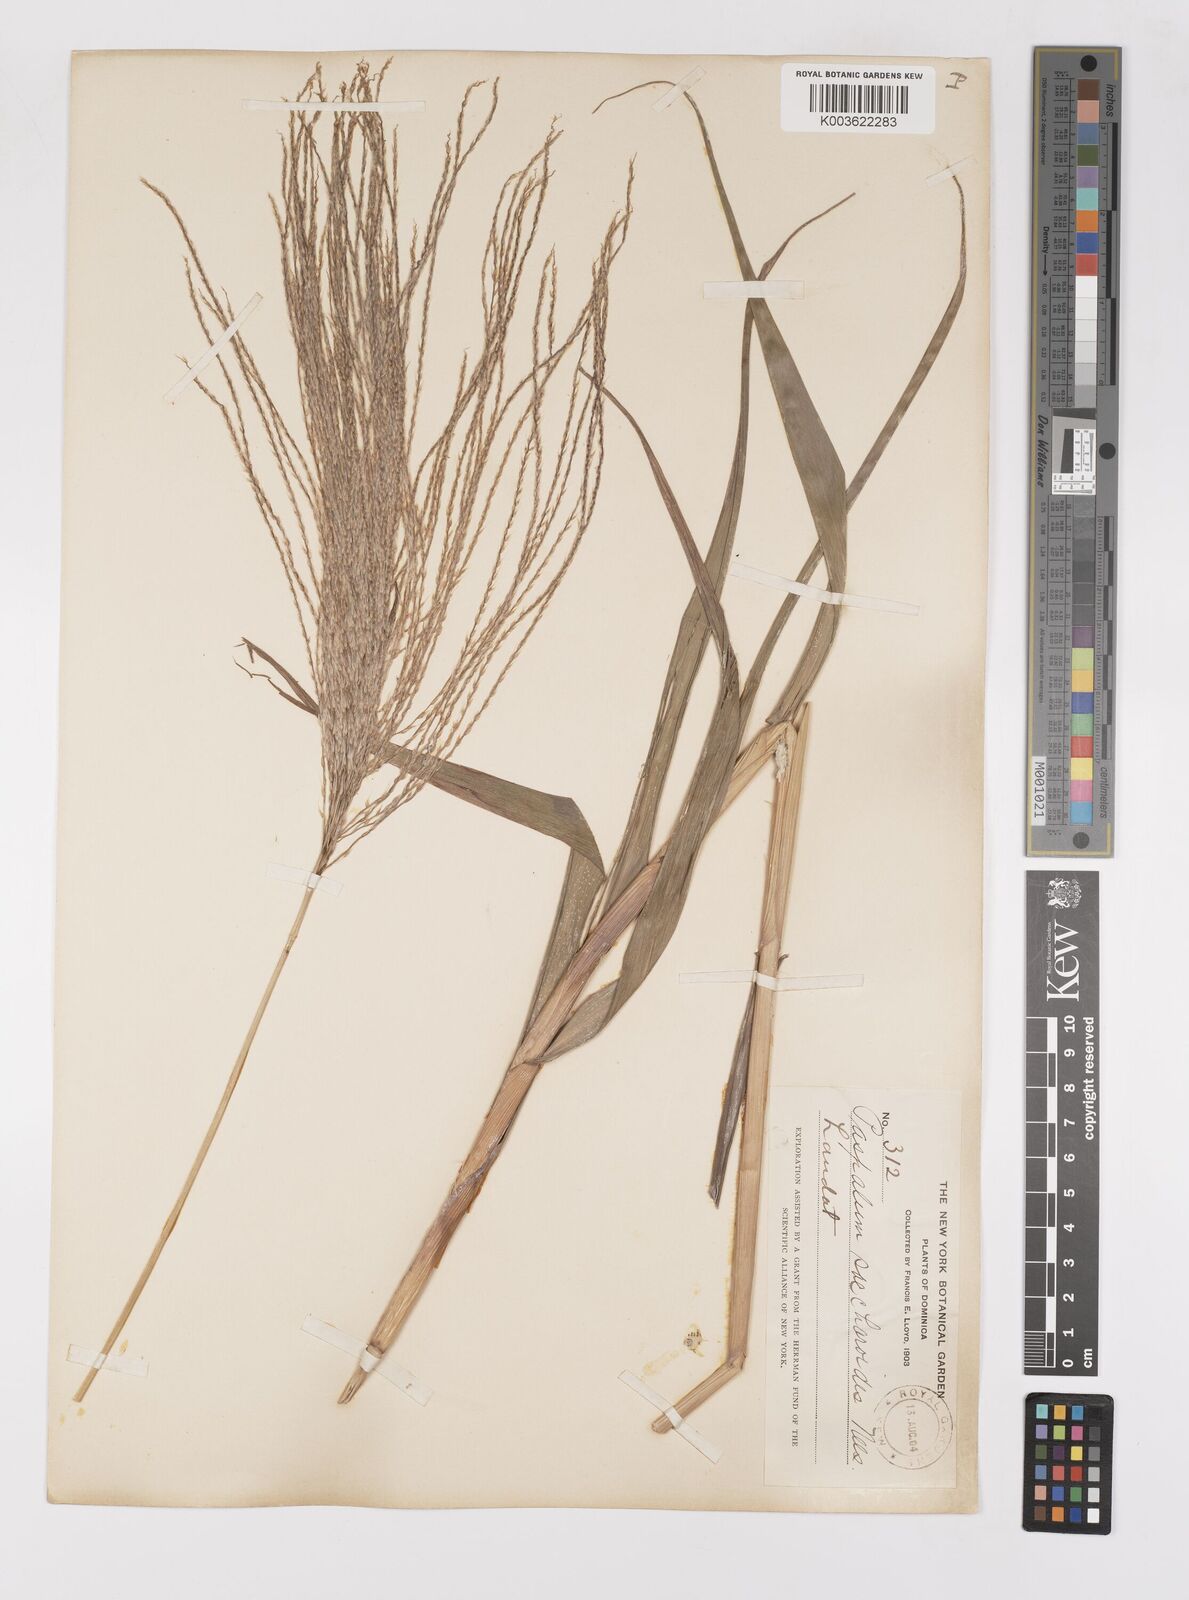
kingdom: Plantae
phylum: Tracheophyta
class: Liliopsida
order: Poales
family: Poaceae
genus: Paspalum
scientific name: Paspalum saccharoides
